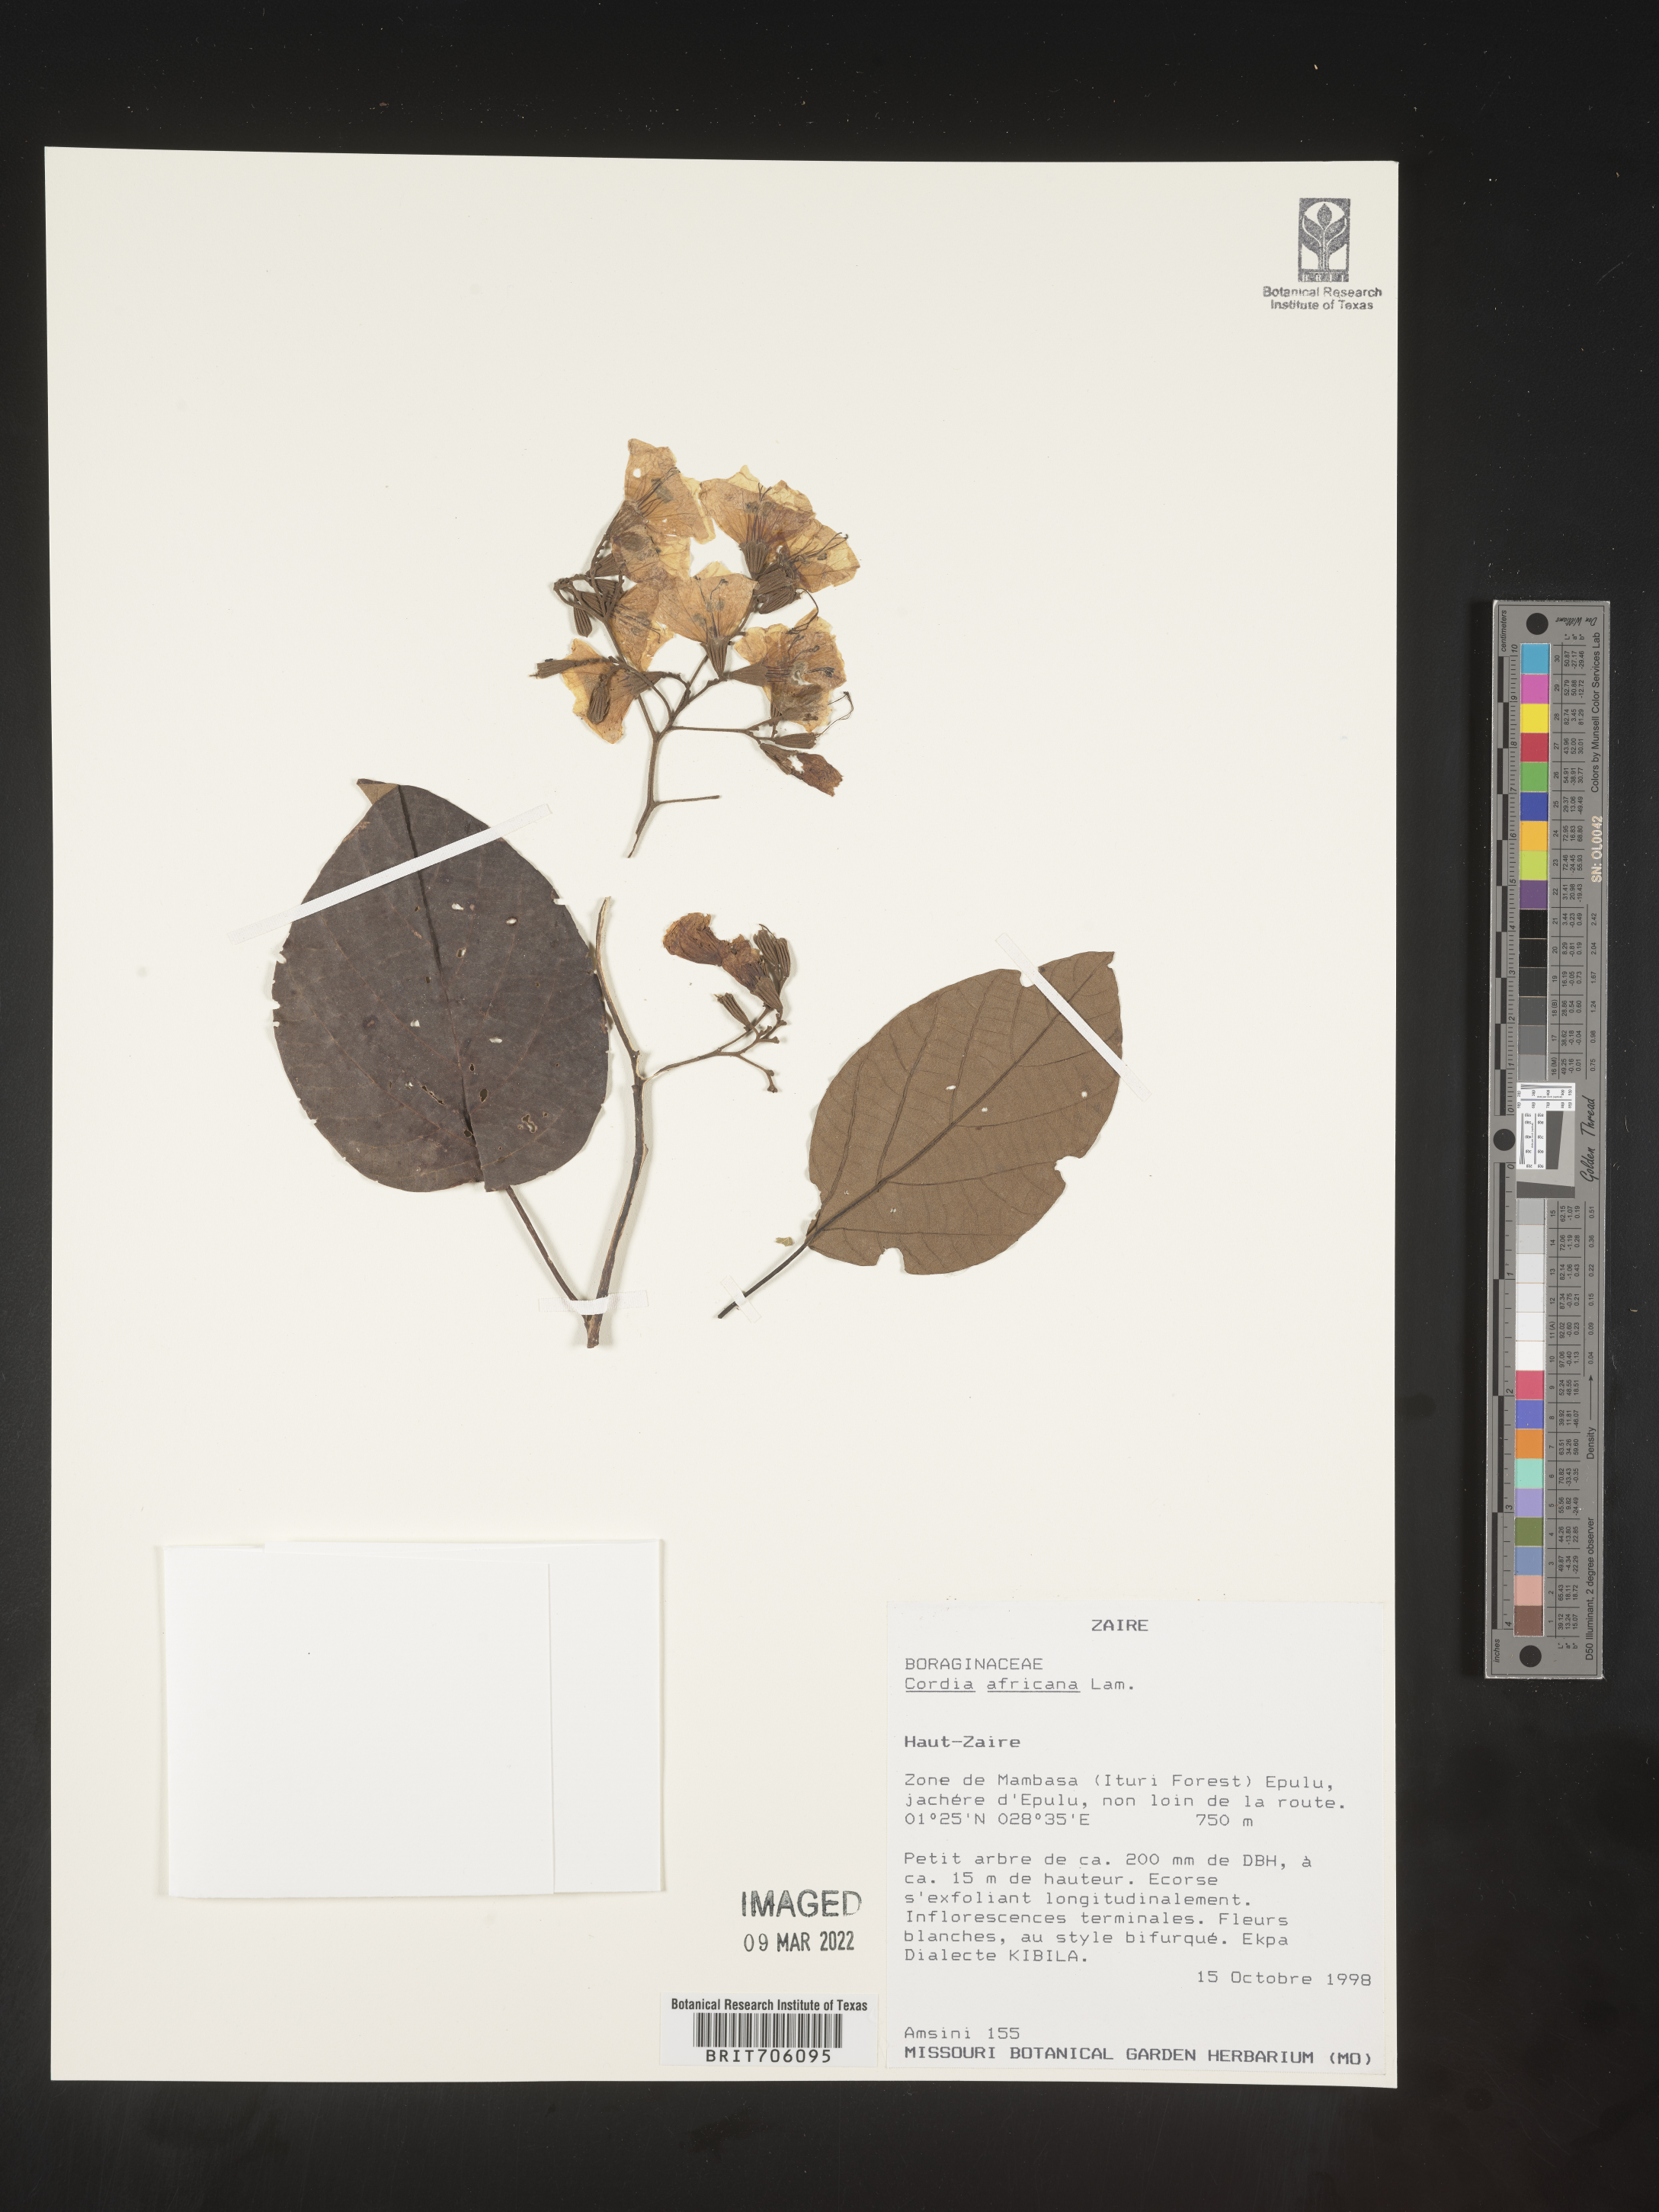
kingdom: Plantae
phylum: Tracheophyta
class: Magnoliopsida
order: Boraginales
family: Cordiaceae
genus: Cordia
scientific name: Cordia
